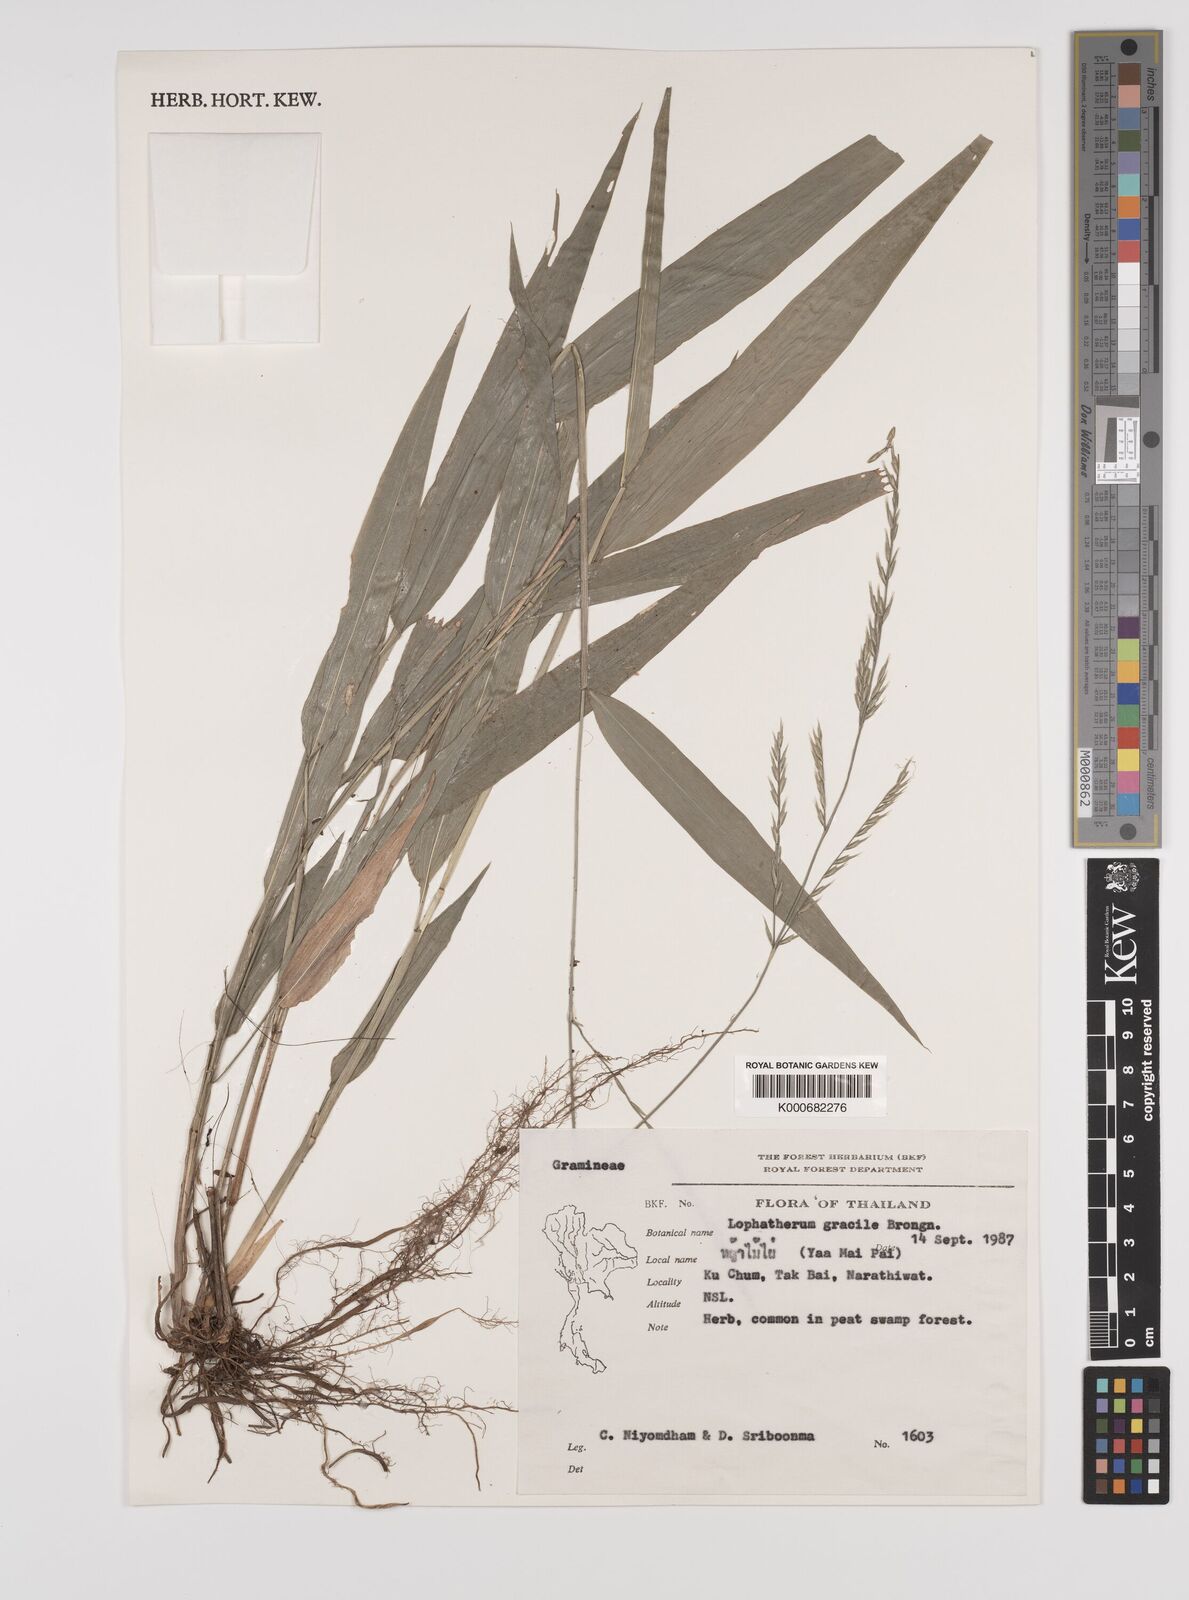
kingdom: Plantae
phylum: Tracheophyta
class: Liliopsida
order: Poales
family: Poaceae
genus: Lophatherum
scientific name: Lophatherum gracile
